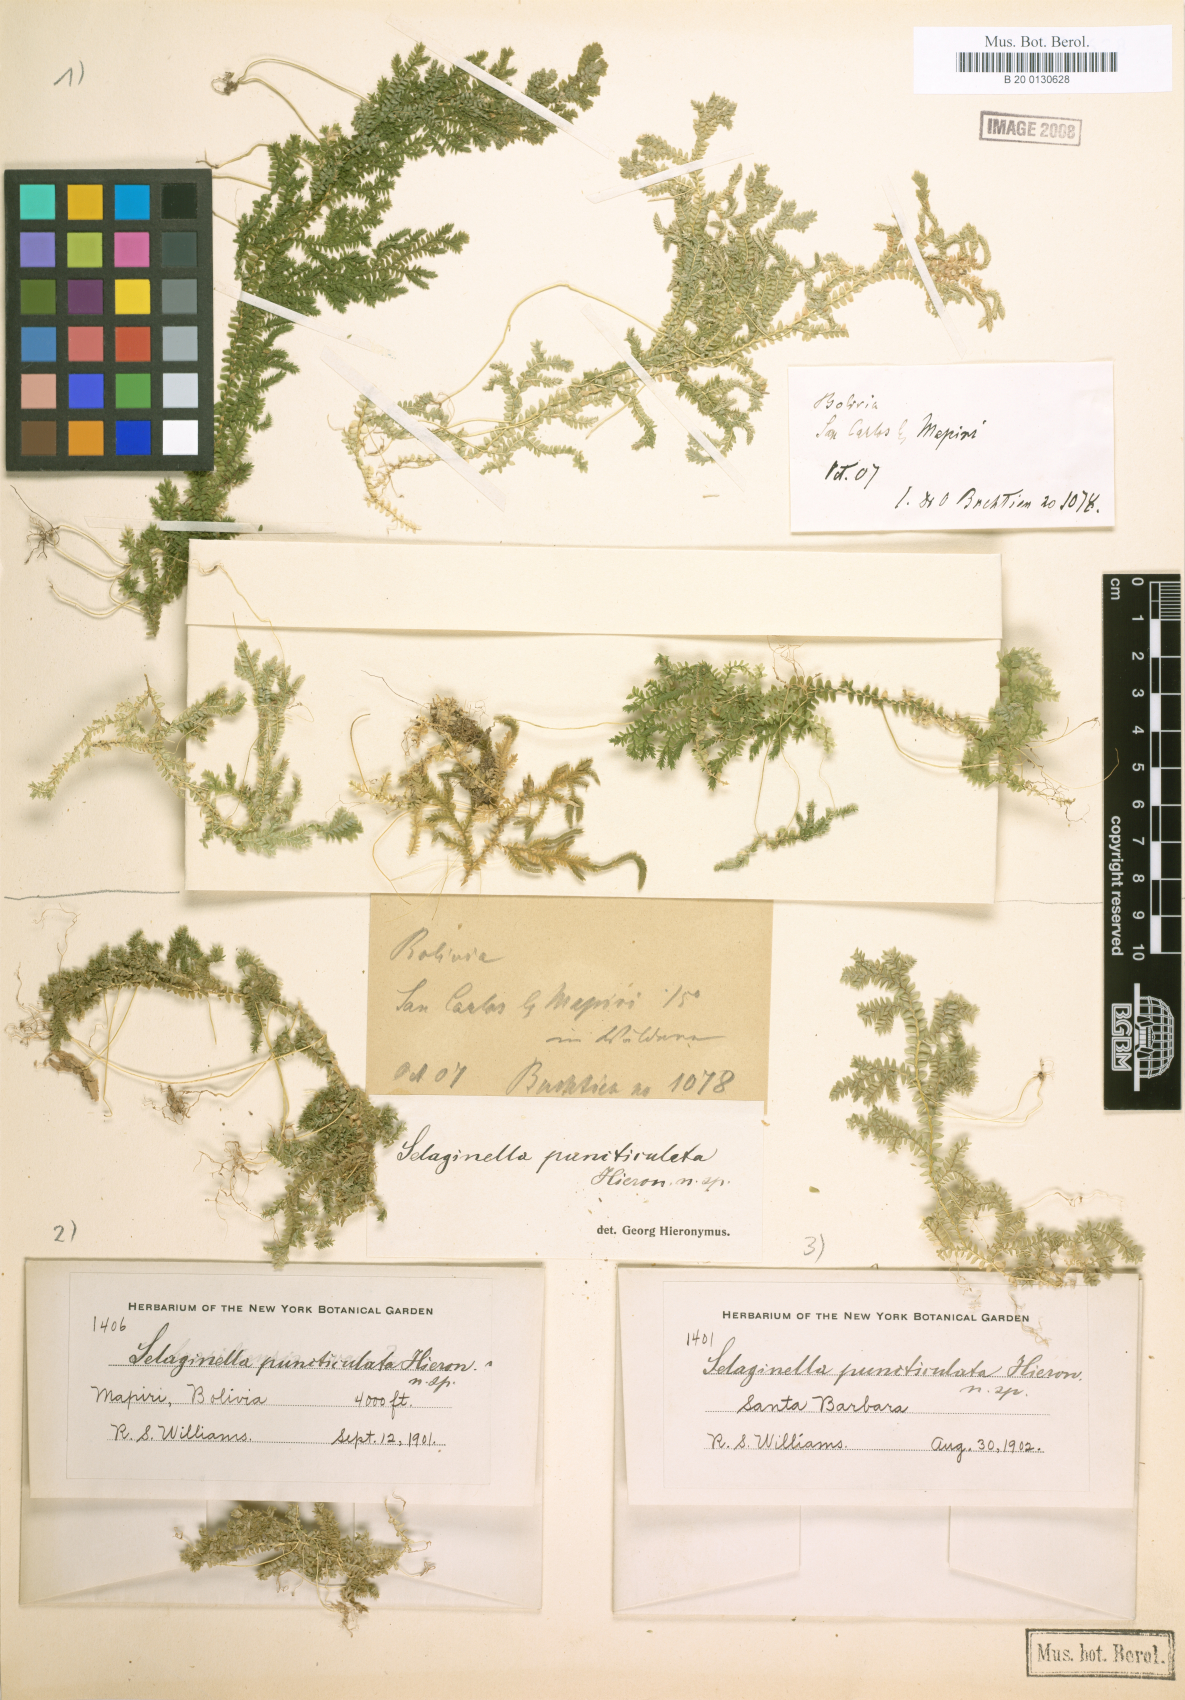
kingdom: Plantae
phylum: Tracheophyta
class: Lycopodiopsida
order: Selaginellales
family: Selaginellaceae
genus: Selaginella
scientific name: Selaginella flexuosa
